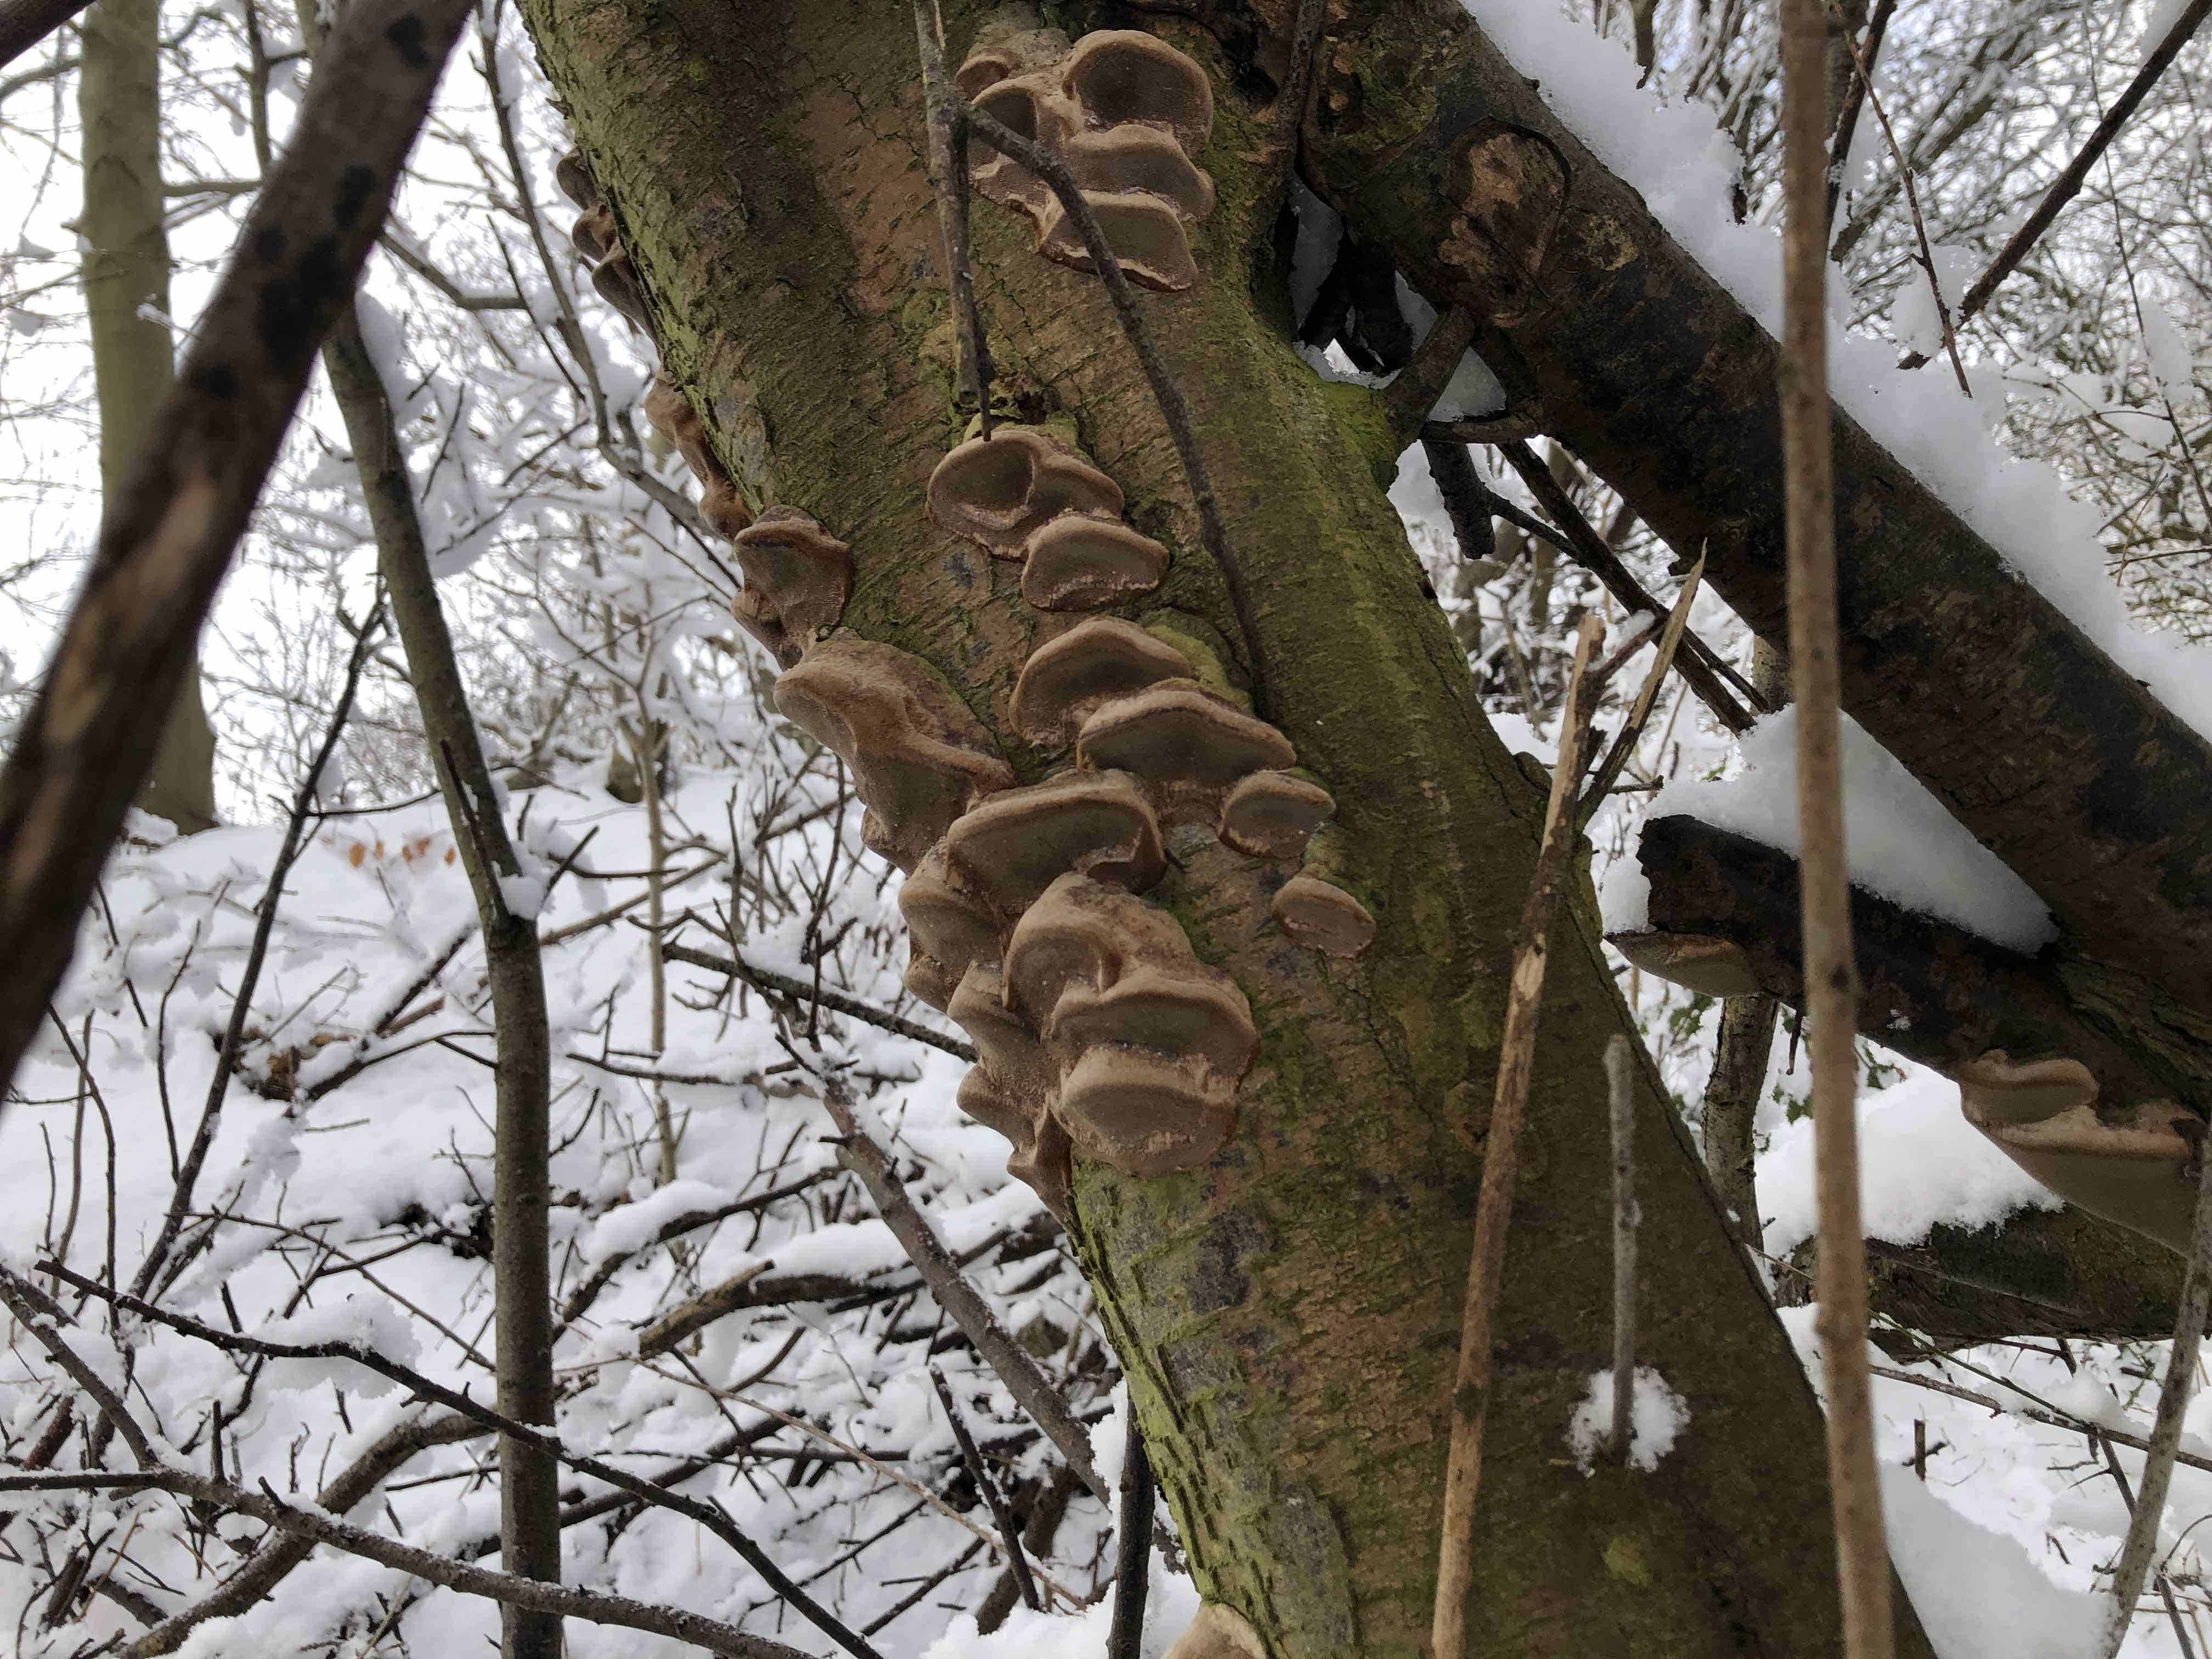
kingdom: Fungi
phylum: Basidiomycota
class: Agaricomycetes
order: Hymenochaetales
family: Hymenochaetaceae
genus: Phellinus
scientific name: Phellinus pomaceus
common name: blomme-ildporesvamp
